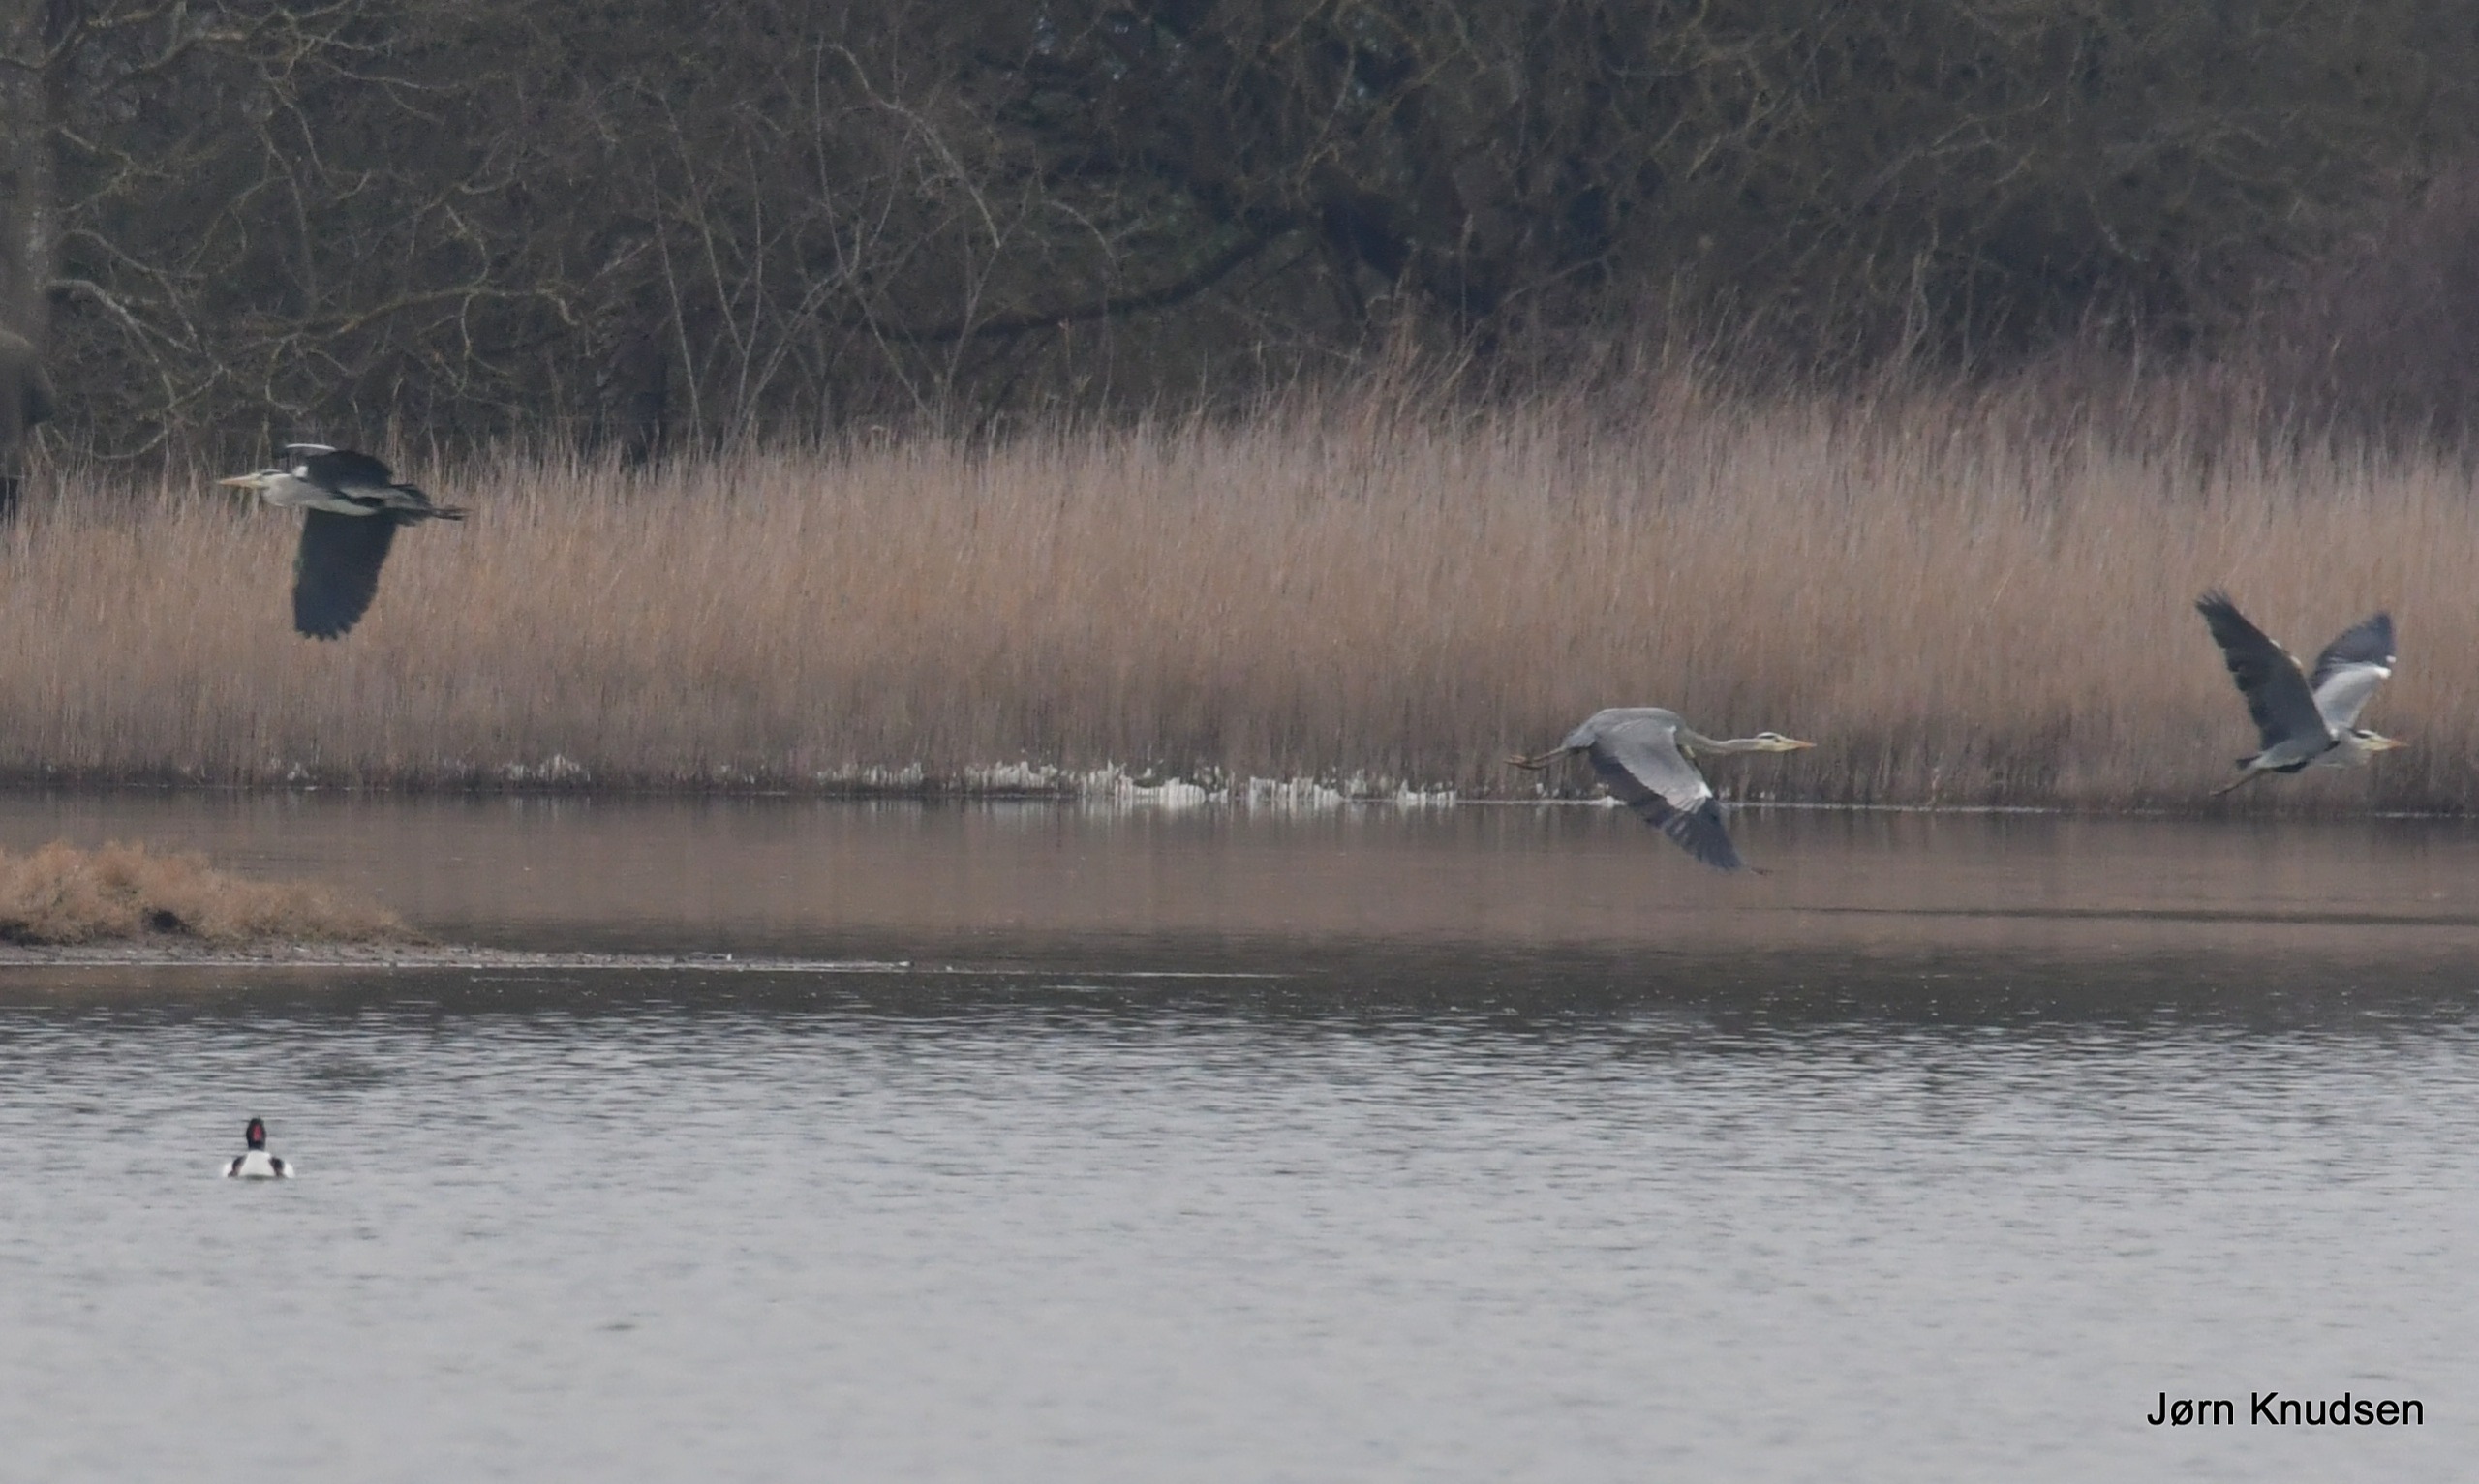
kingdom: Animalia
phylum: Chordata
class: Aves
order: Pelecaniformes
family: Ardeidae
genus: Ardea
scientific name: Ardea cinerea
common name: Fiskehejre
